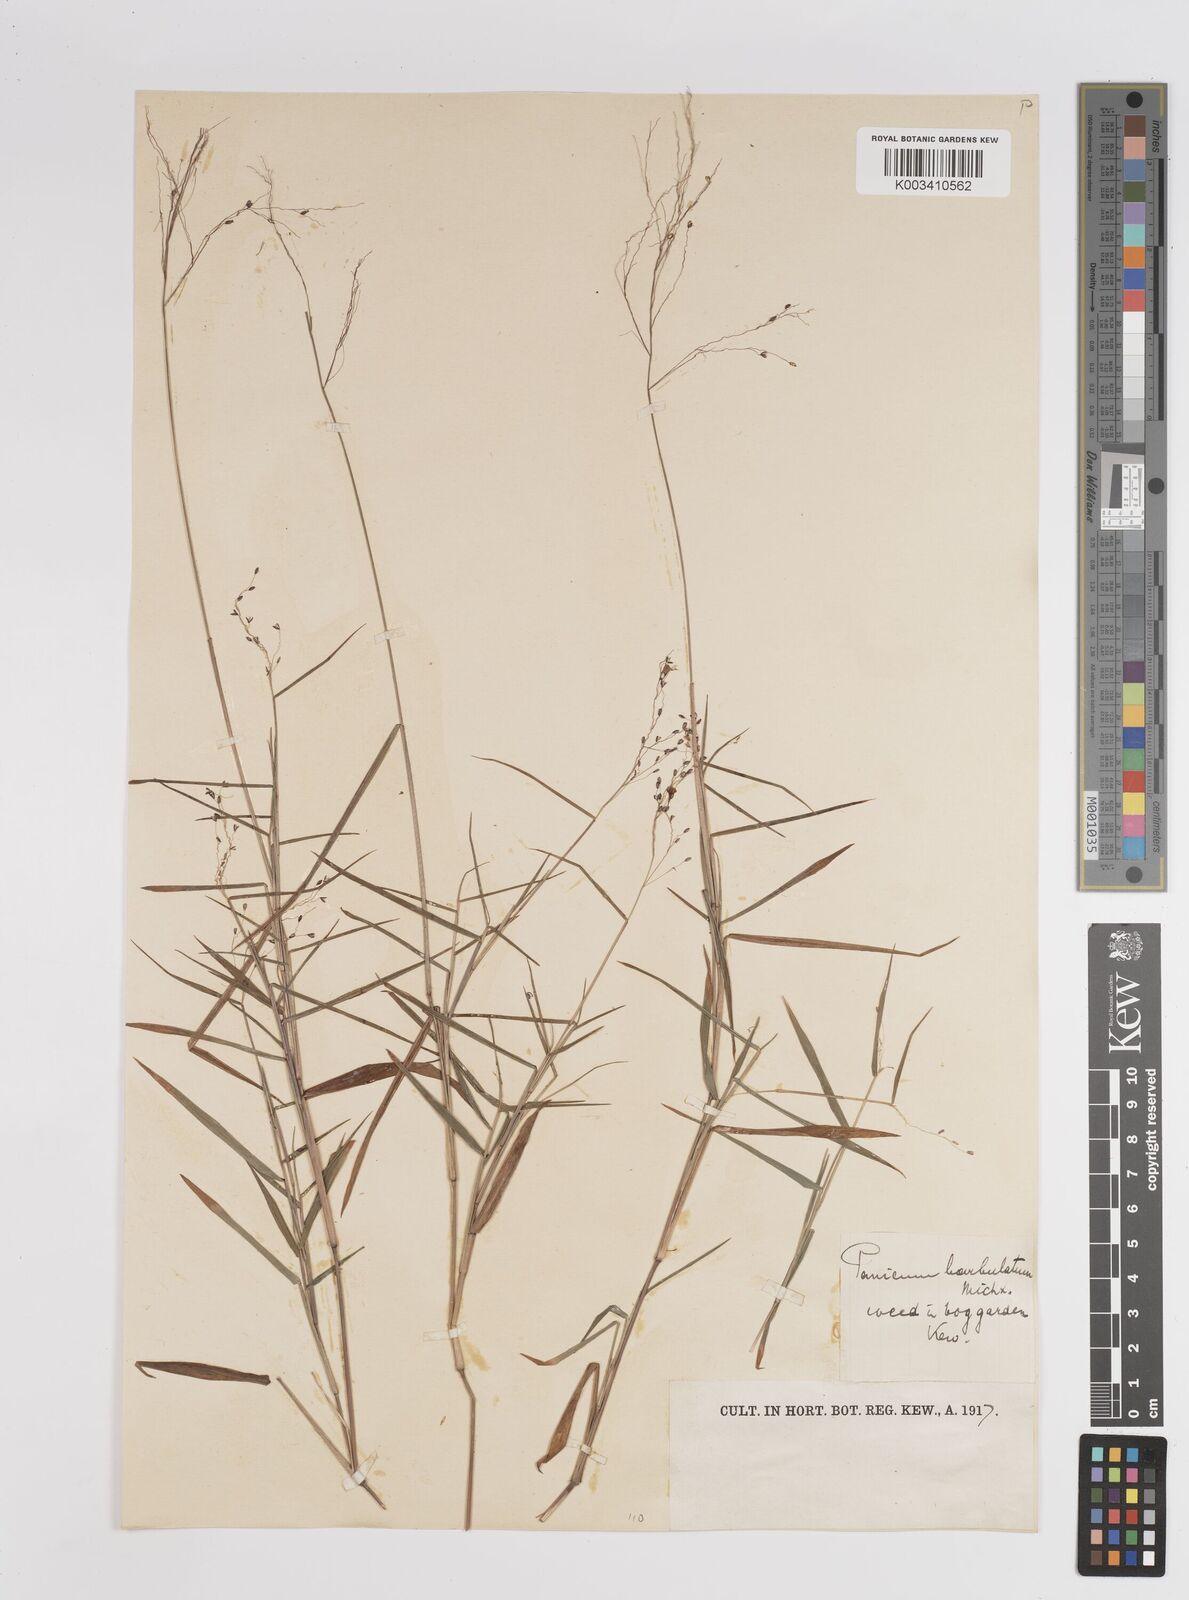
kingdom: Plantae
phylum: Tracheophyta
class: Liliopsida
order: Poales
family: Poaceae
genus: Dichanthelium
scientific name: Dichanthelium dichotomum
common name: Cypress panicgrass
